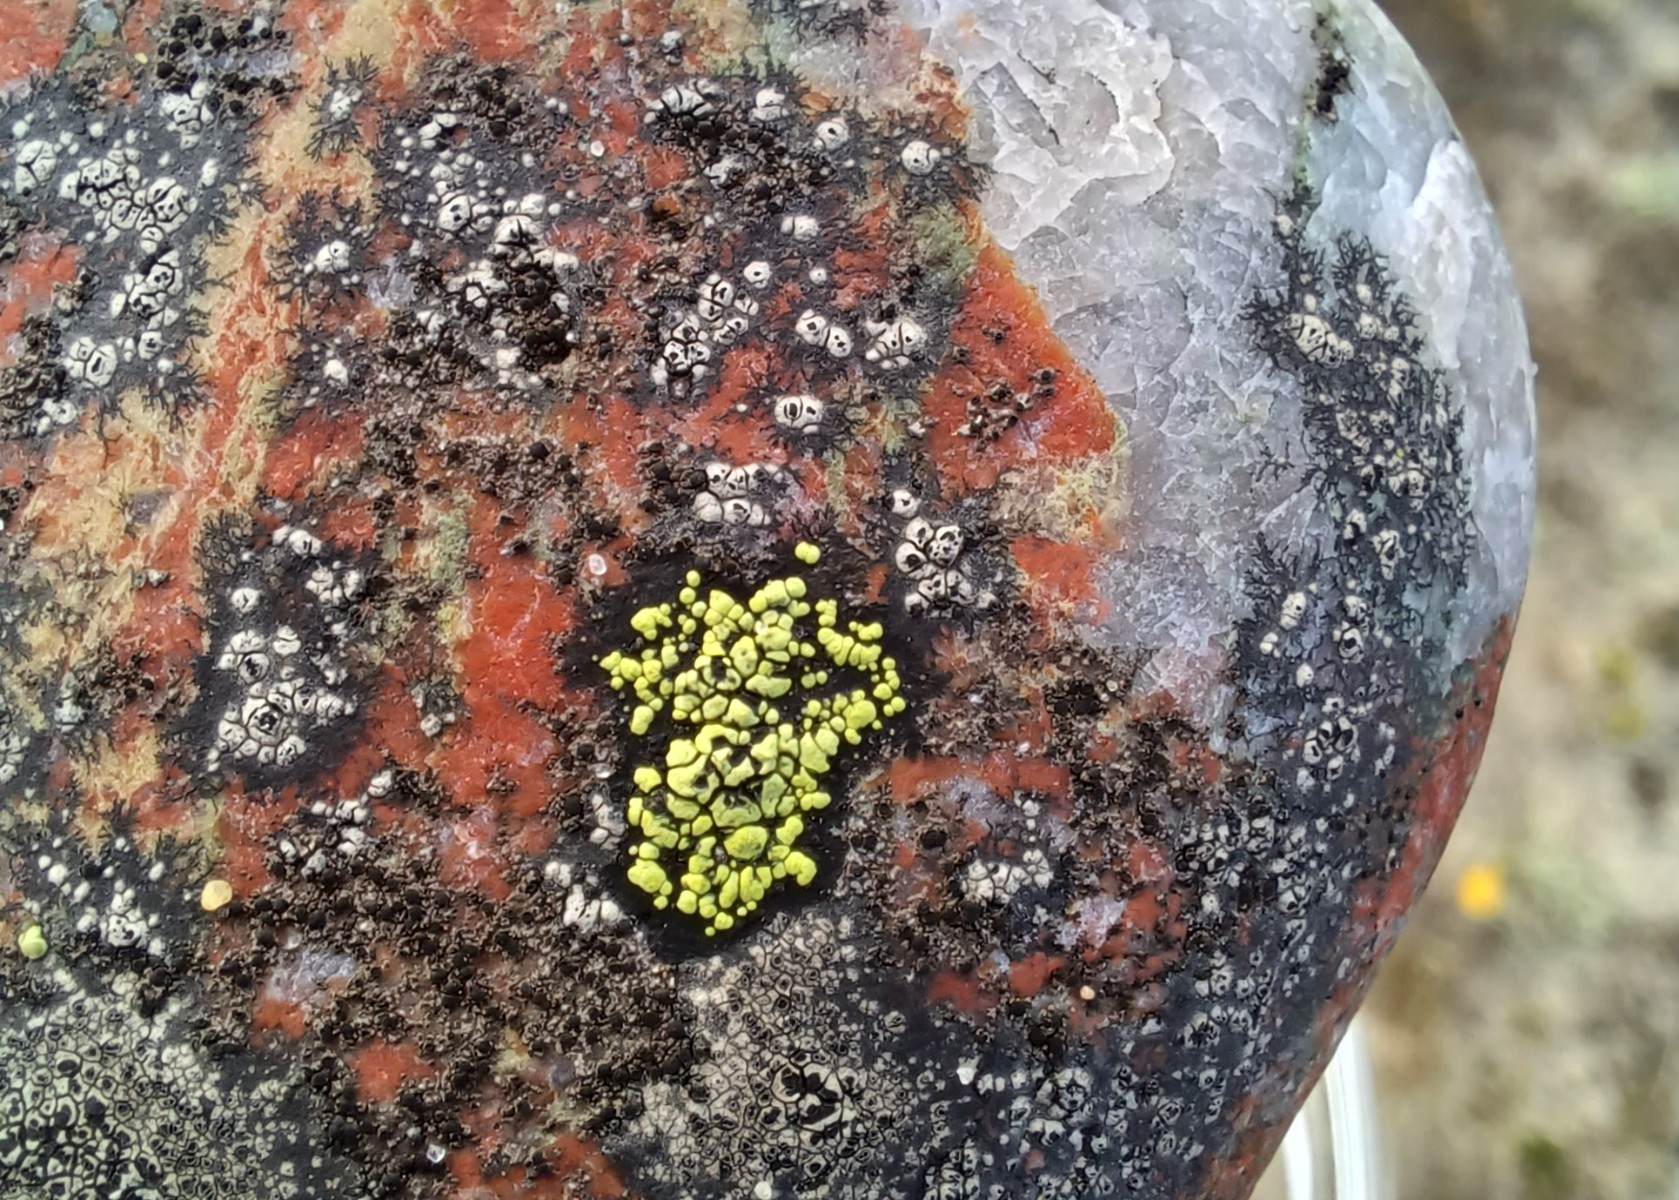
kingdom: Fungi
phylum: Ascomycota
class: Lecanoromycetes
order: Rhizocarpales
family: Rhizocarpaceae
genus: Rhizocarpon
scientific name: Rhizocarpon lecanorinum
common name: krave-landkortlav
